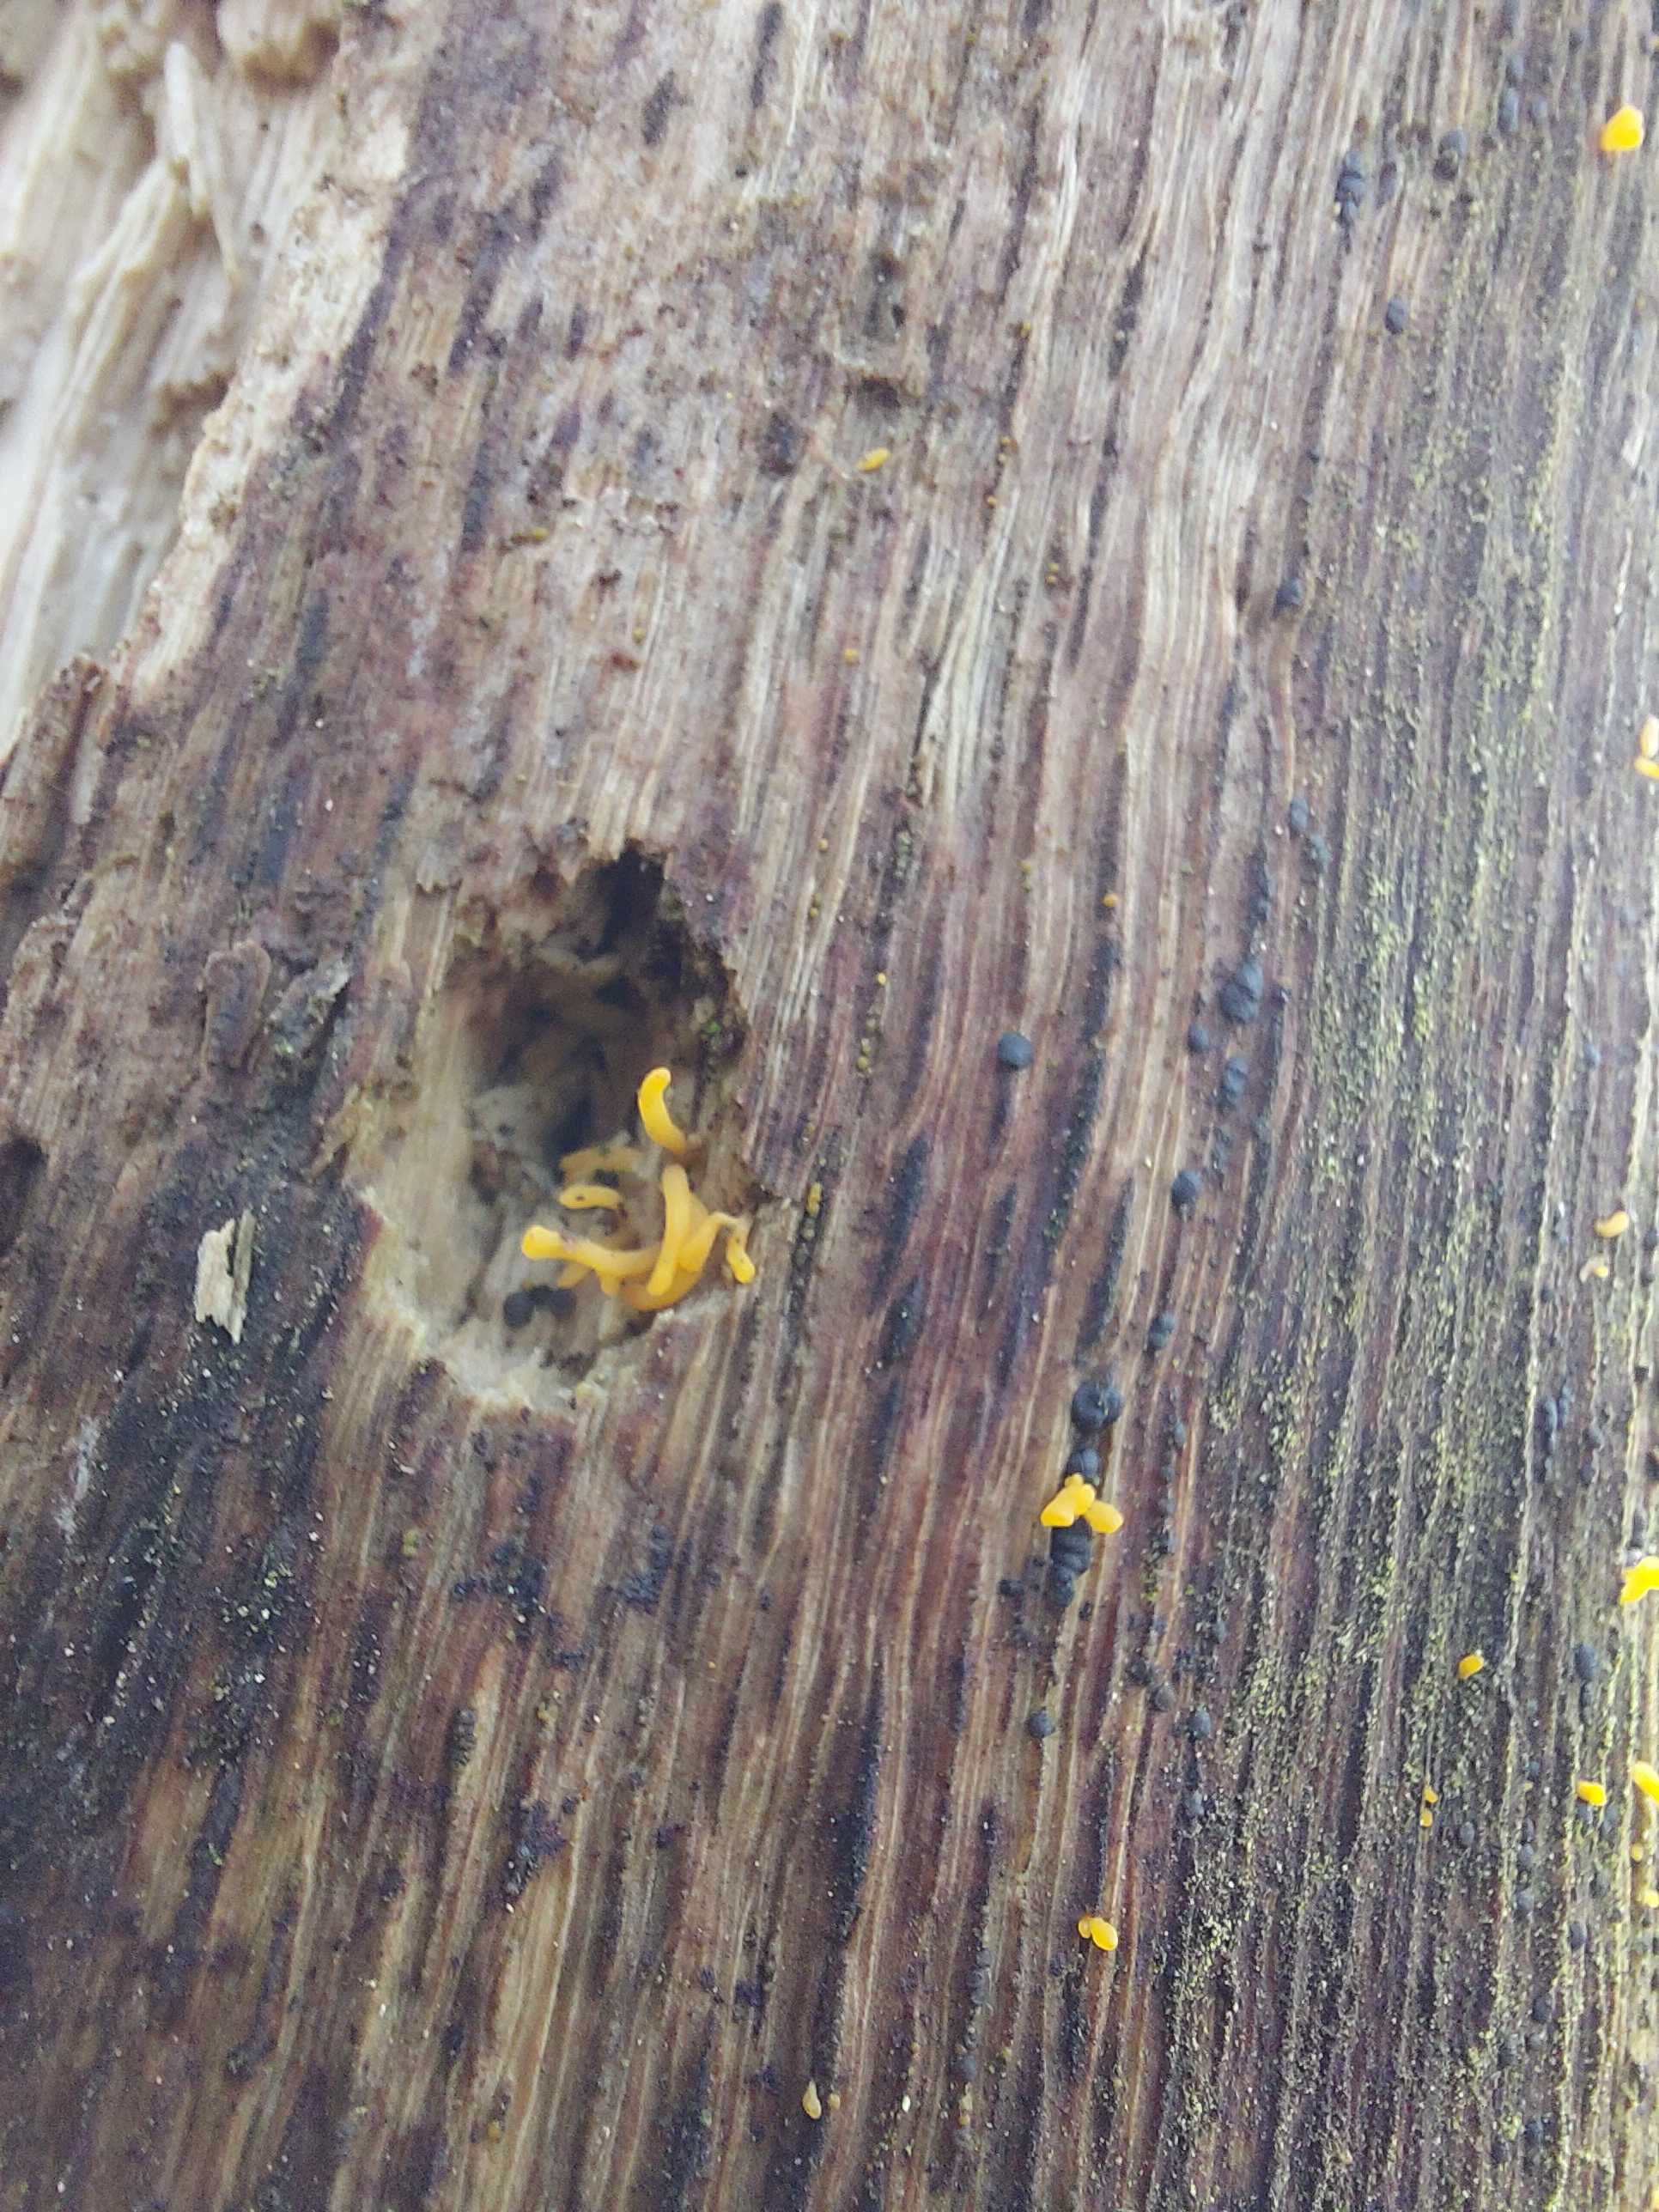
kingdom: Fungi
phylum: Basidiomycota
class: Dacrymycetes
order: Dacrymycetales
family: Dacrymycetaceae
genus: Calocera
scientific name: Calocera cornea
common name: liden guldgaffel
